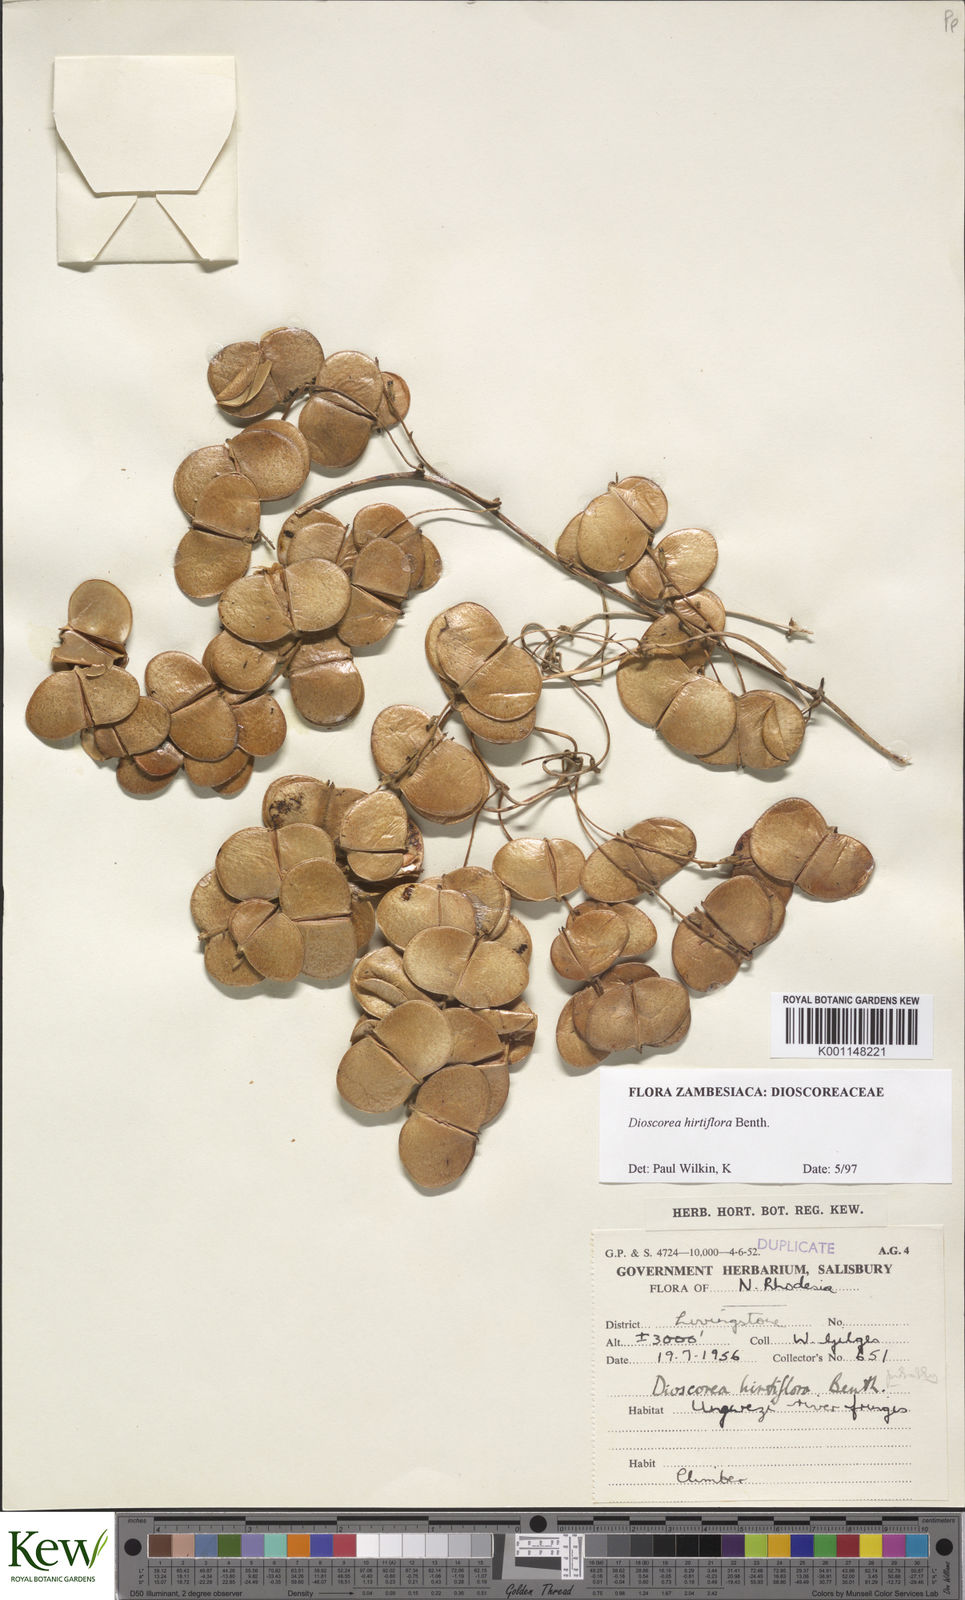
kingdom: Plantae
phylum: Tracheophyta
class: Liliopsida
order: Dioscoreales
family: Dioscoreaceae
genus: Dioscorea
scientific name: Dioscorea hirtiflora
